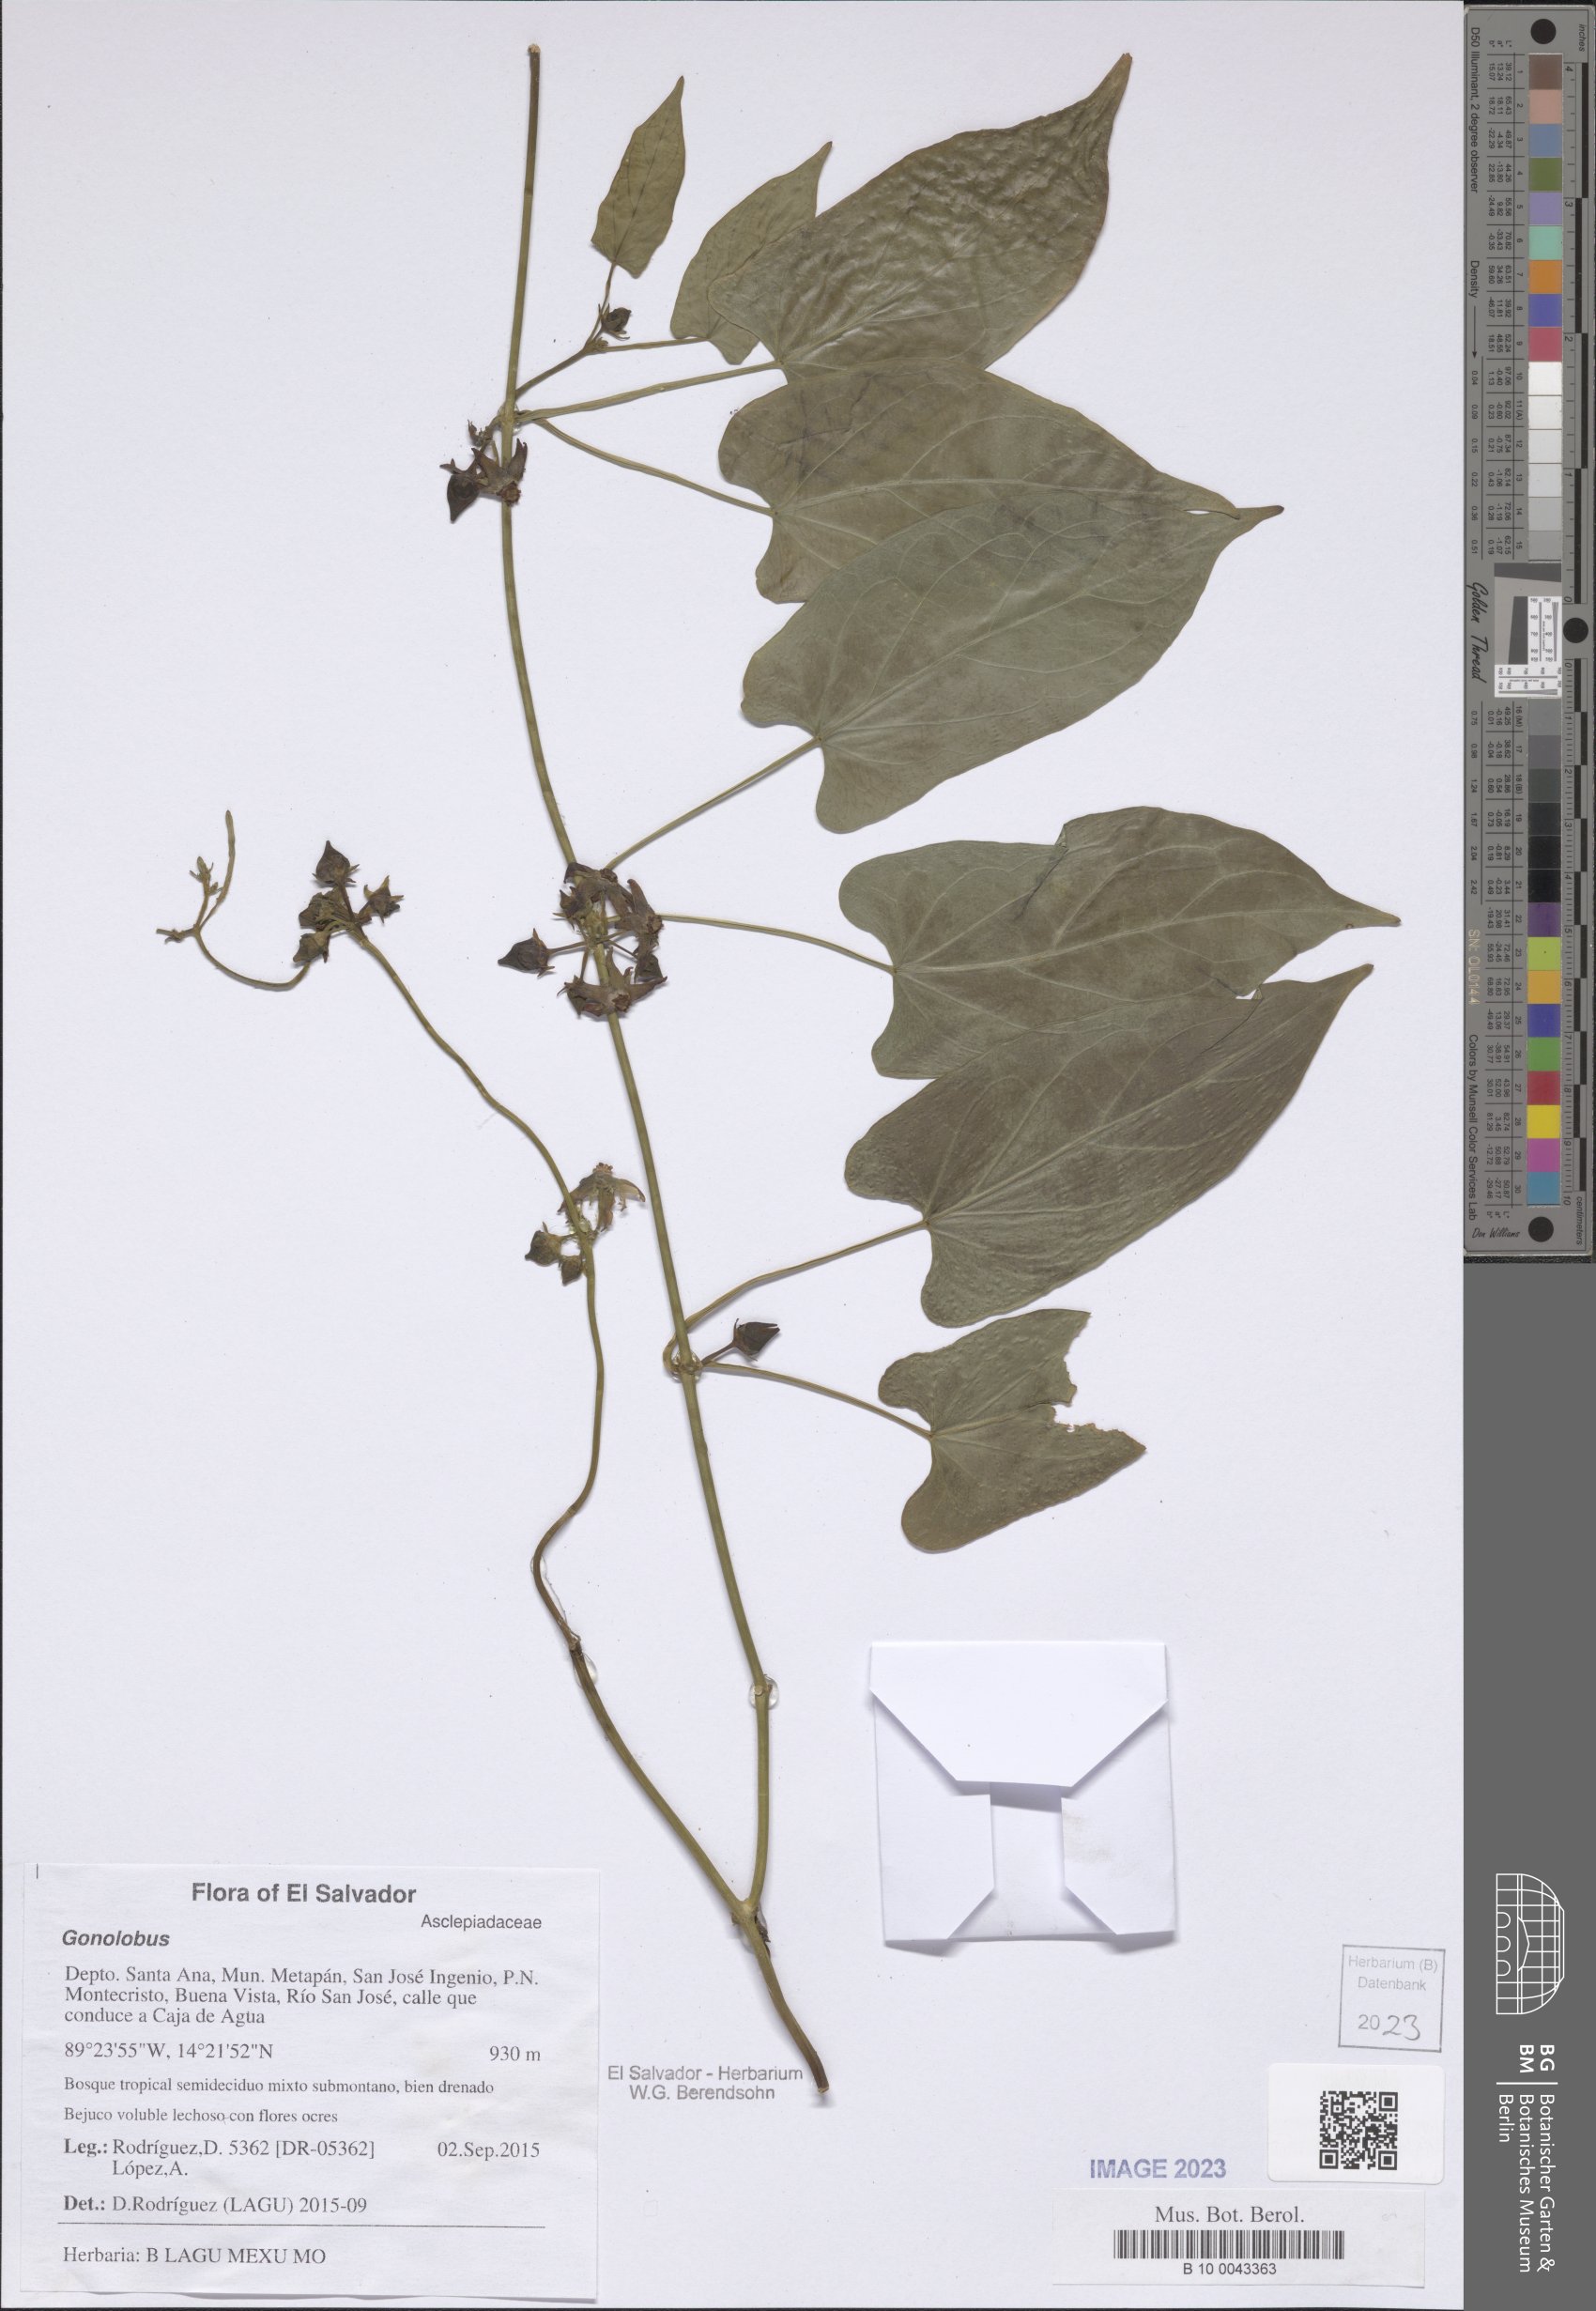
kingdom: Plantae
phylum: Tracheophyta
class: Magnoliopsida
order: Gentianales
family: Apocynaceae
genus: Gonolobus
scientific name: Gonolobus
